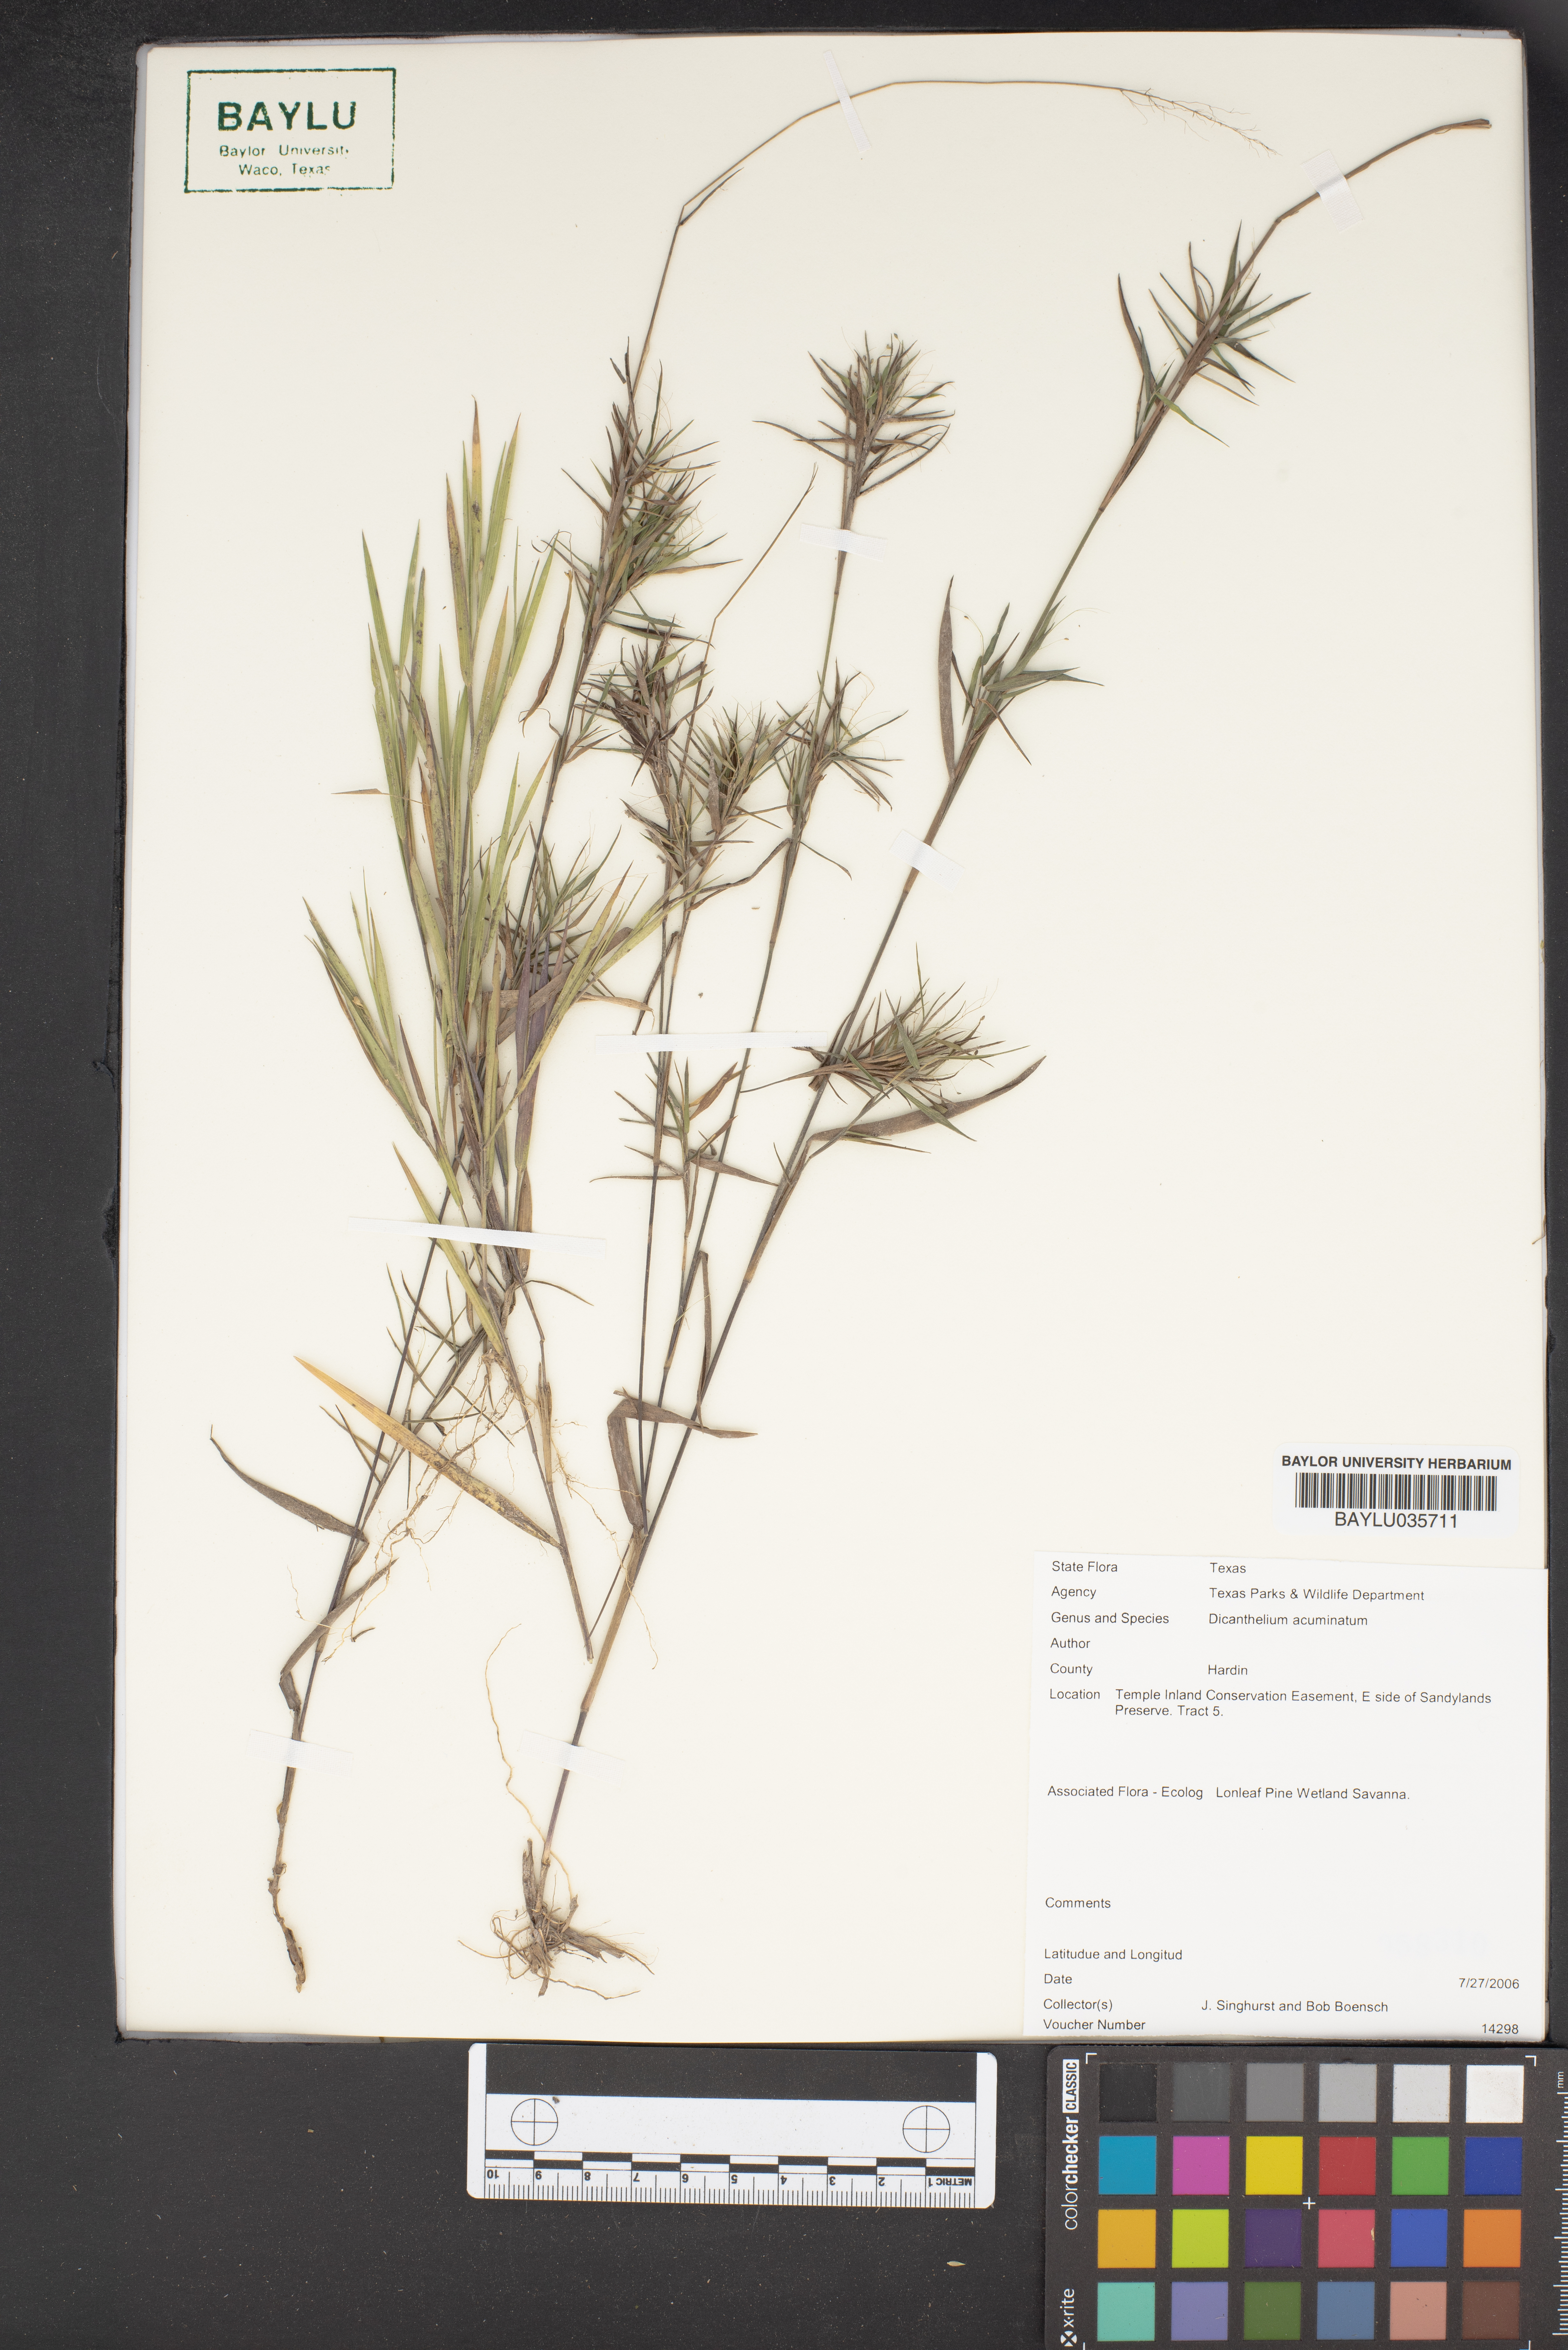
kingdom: Plantae
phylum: Tracheophyta
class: Liliopsida
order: Poales
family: Poaceae
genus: Dichanthelium
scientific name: Dichanthelium acuminatum
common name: Hairy panic grass
